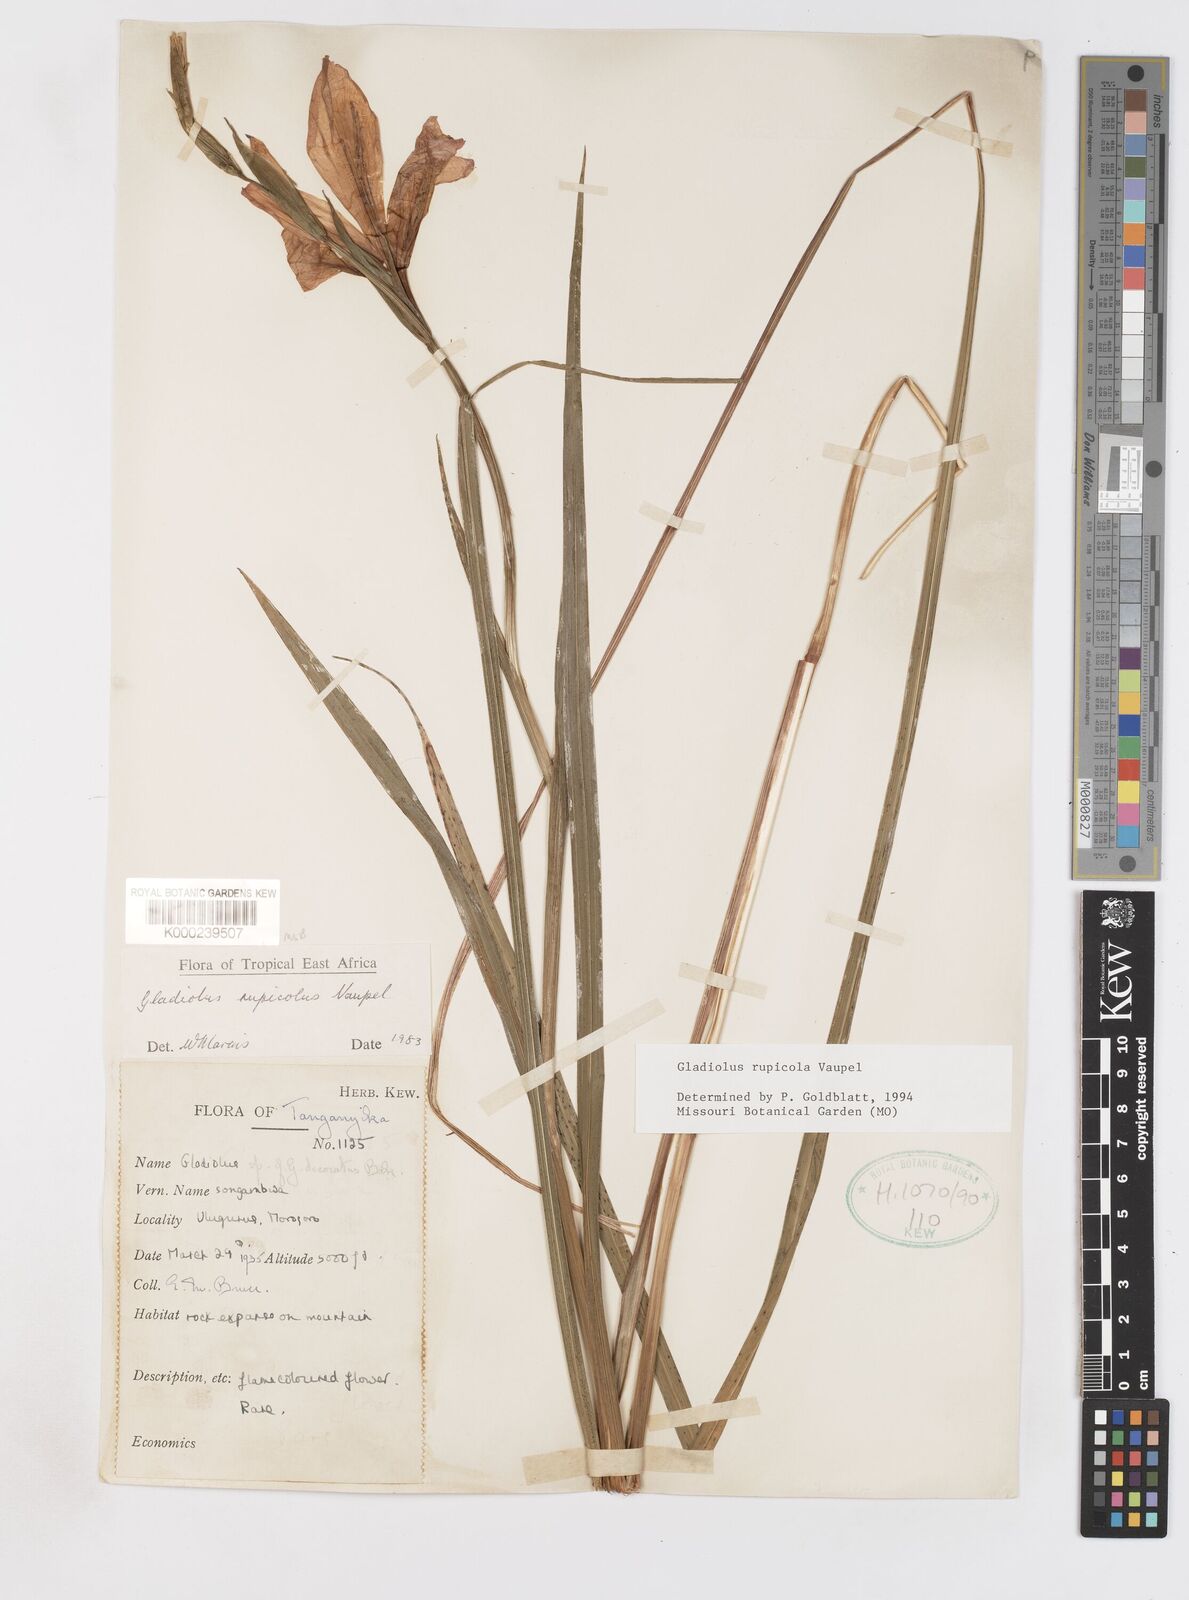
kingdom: Plantae
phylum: Tracheophyta
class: Liliopsida
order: Asparagales
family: Iridaceae
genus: Gladiolus
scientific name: Gladiolus rupicola
